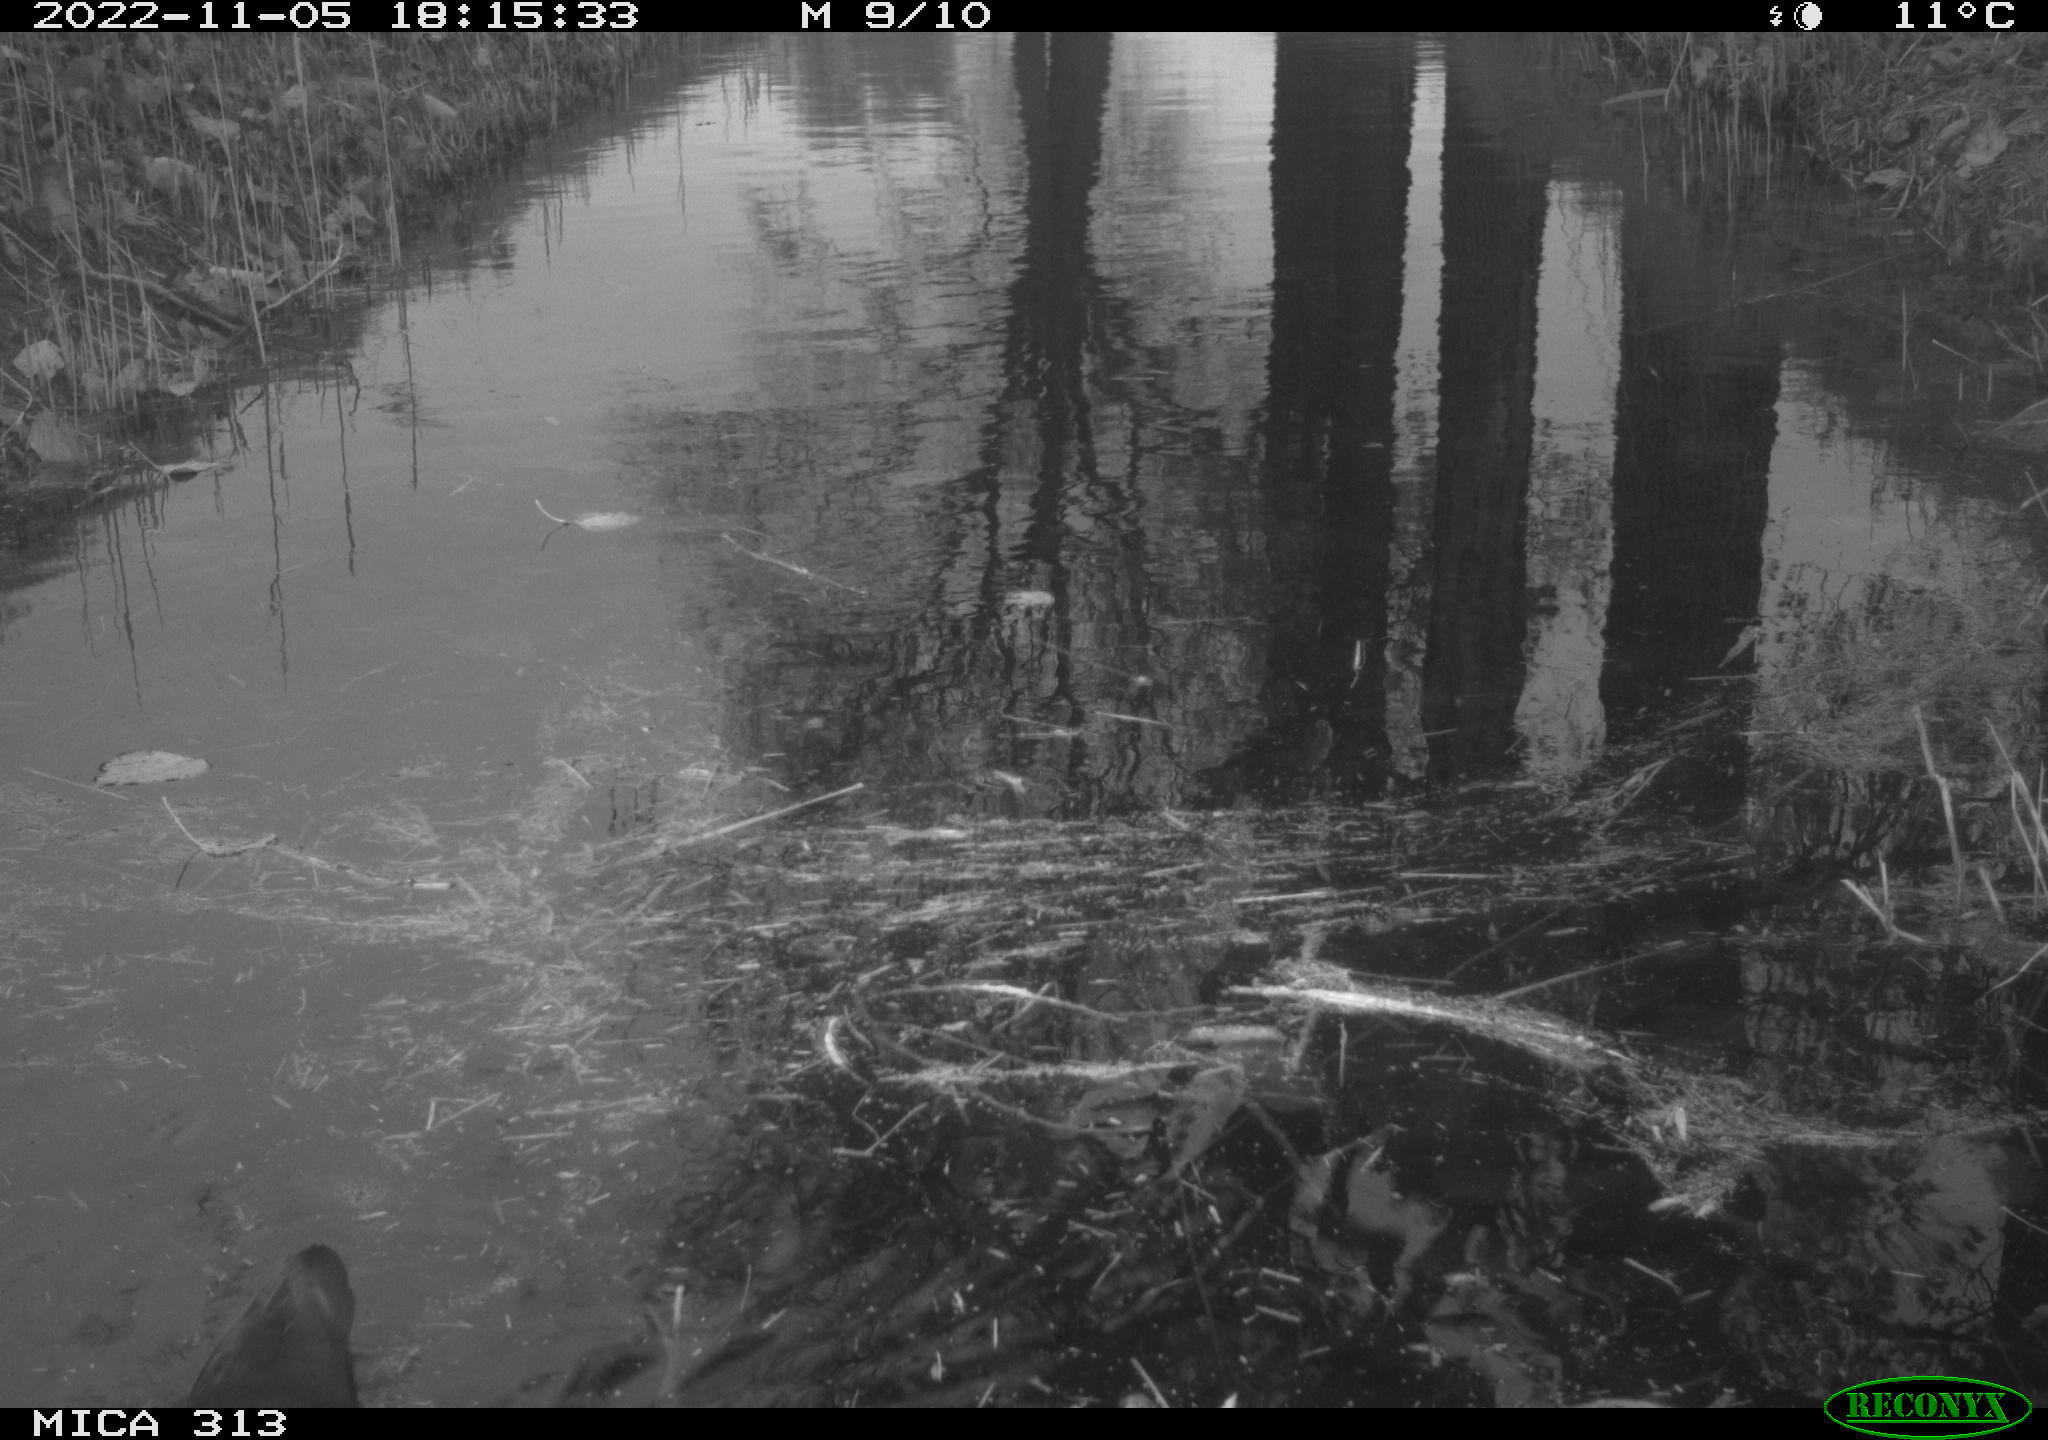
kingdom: Animalia
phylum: Chordata
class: Aves
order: Gruiformes
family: Rallidae
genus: Gallinula
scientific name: Gallinula chloropus
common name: Common moorhen
